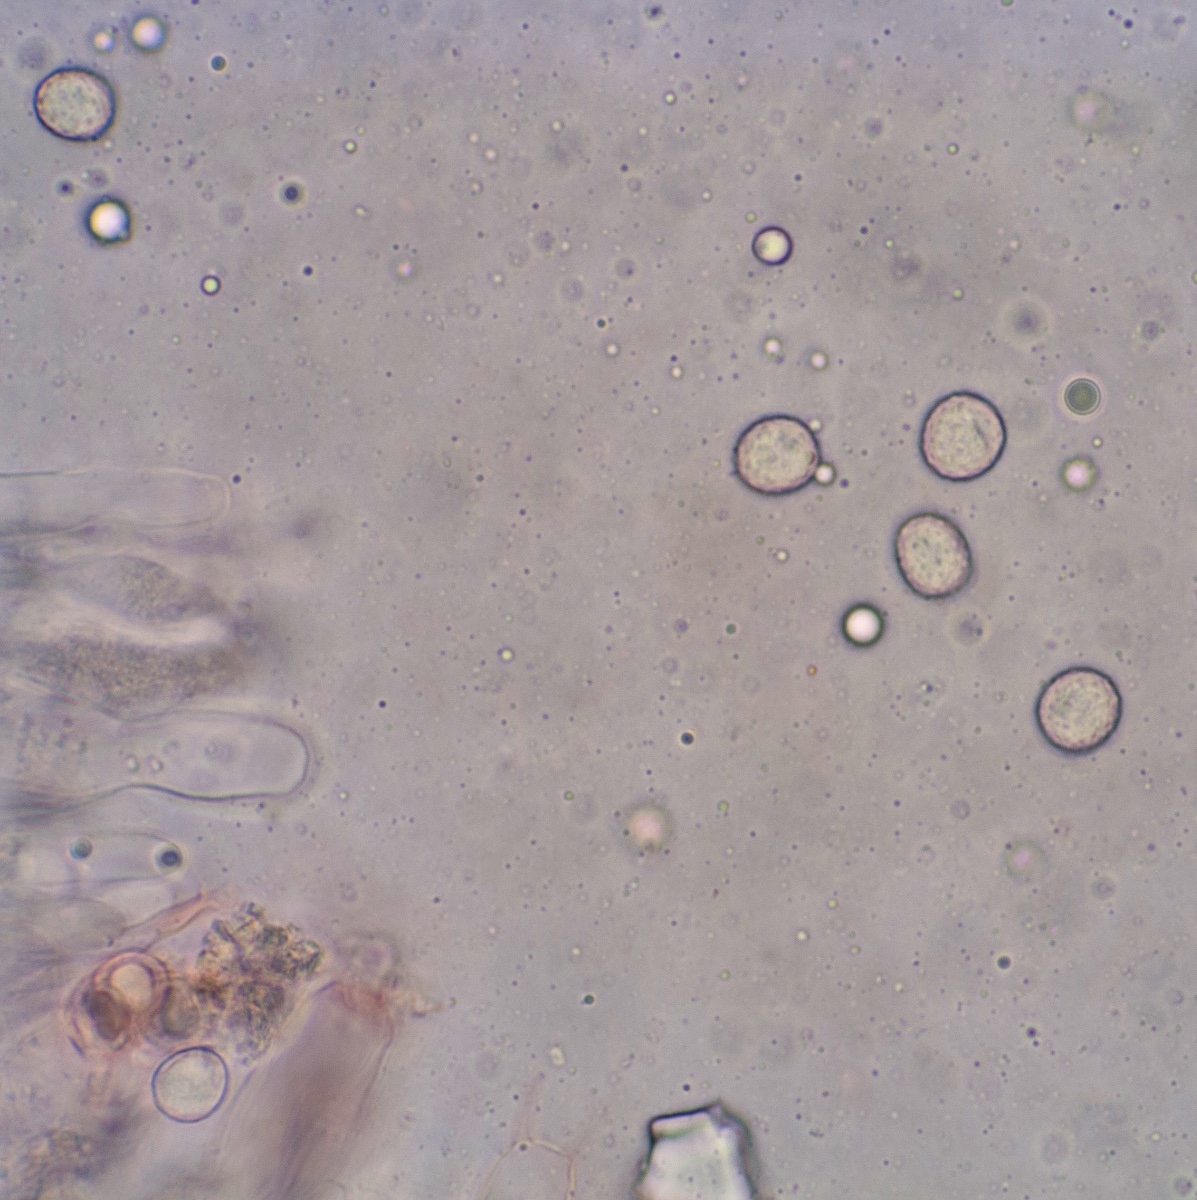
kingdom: Fungi
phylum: Basidiomycota
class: Agaricomycetes
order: Russulales
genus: Gloeohypochnicium
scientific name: Gloeohypochnicium analogum
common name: frugt-kalkskind
